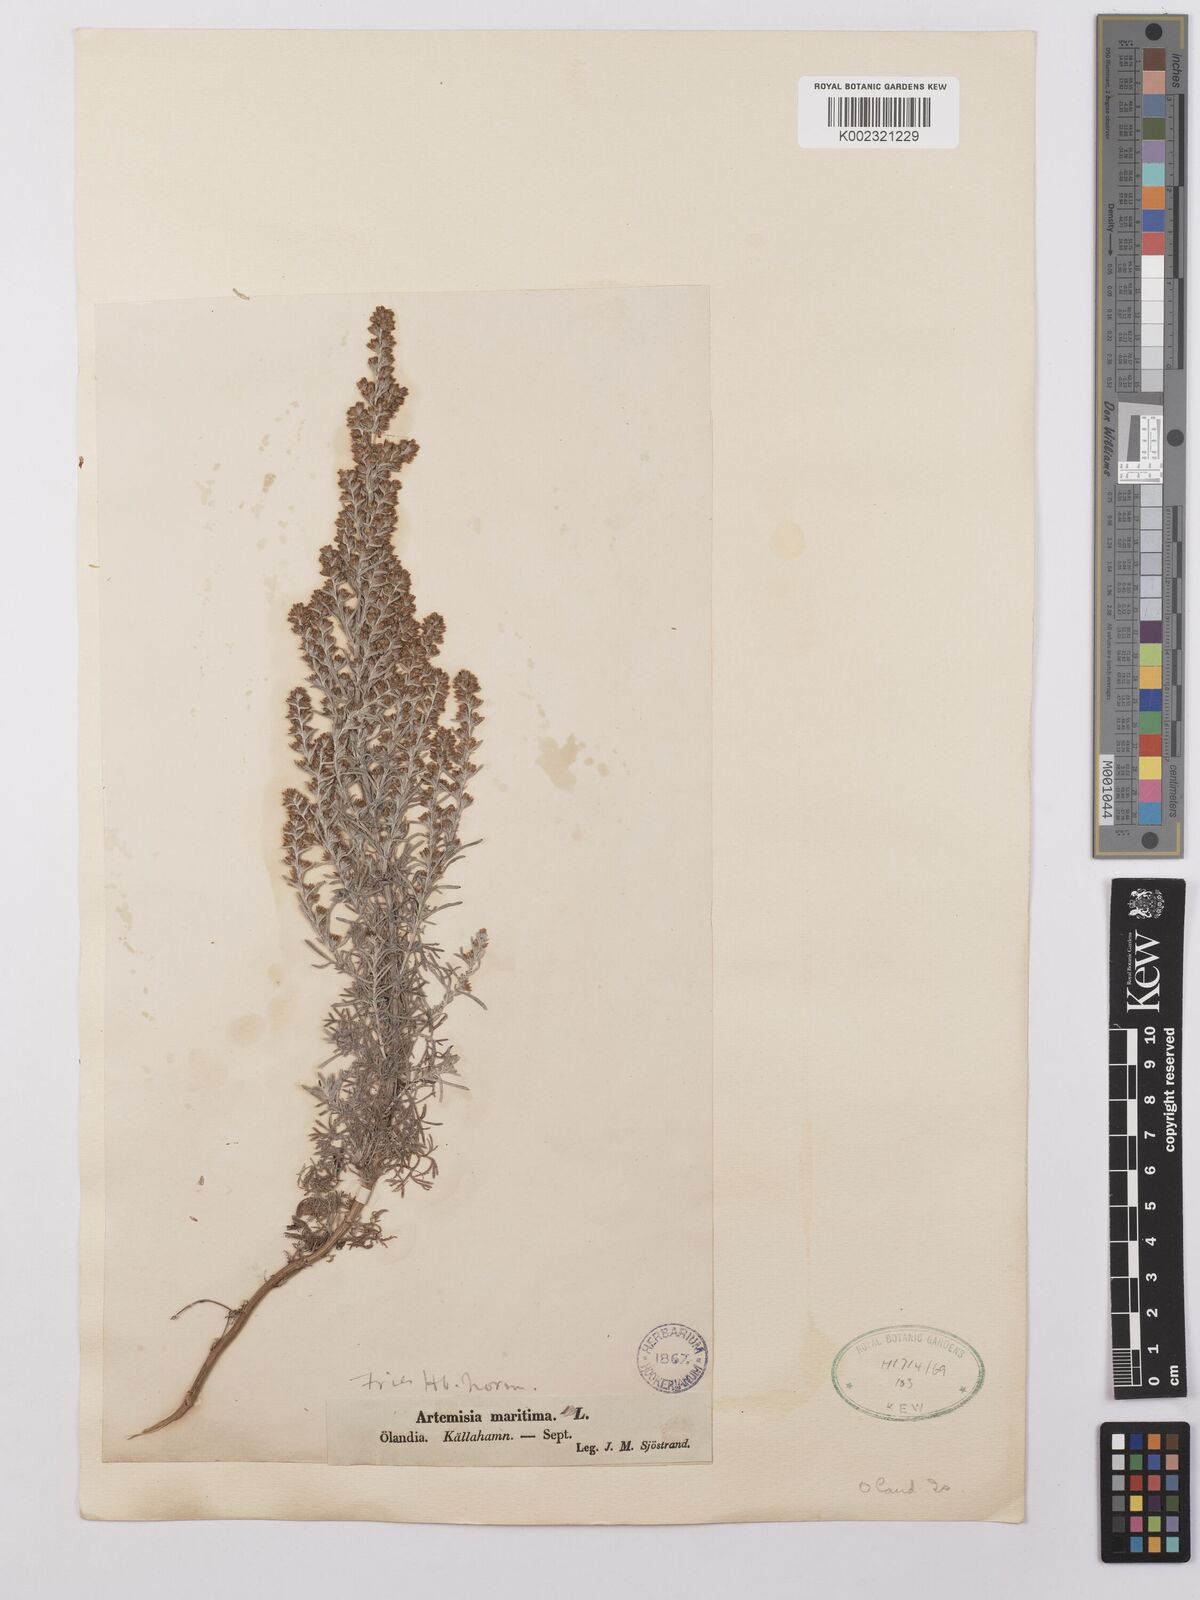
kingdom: Plantae
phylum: Tracheophyta
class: Magnoliopsida
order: Asterales
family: Asteraceae
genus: Artemisia
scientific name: Artemisia maritima
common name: Wormseed
